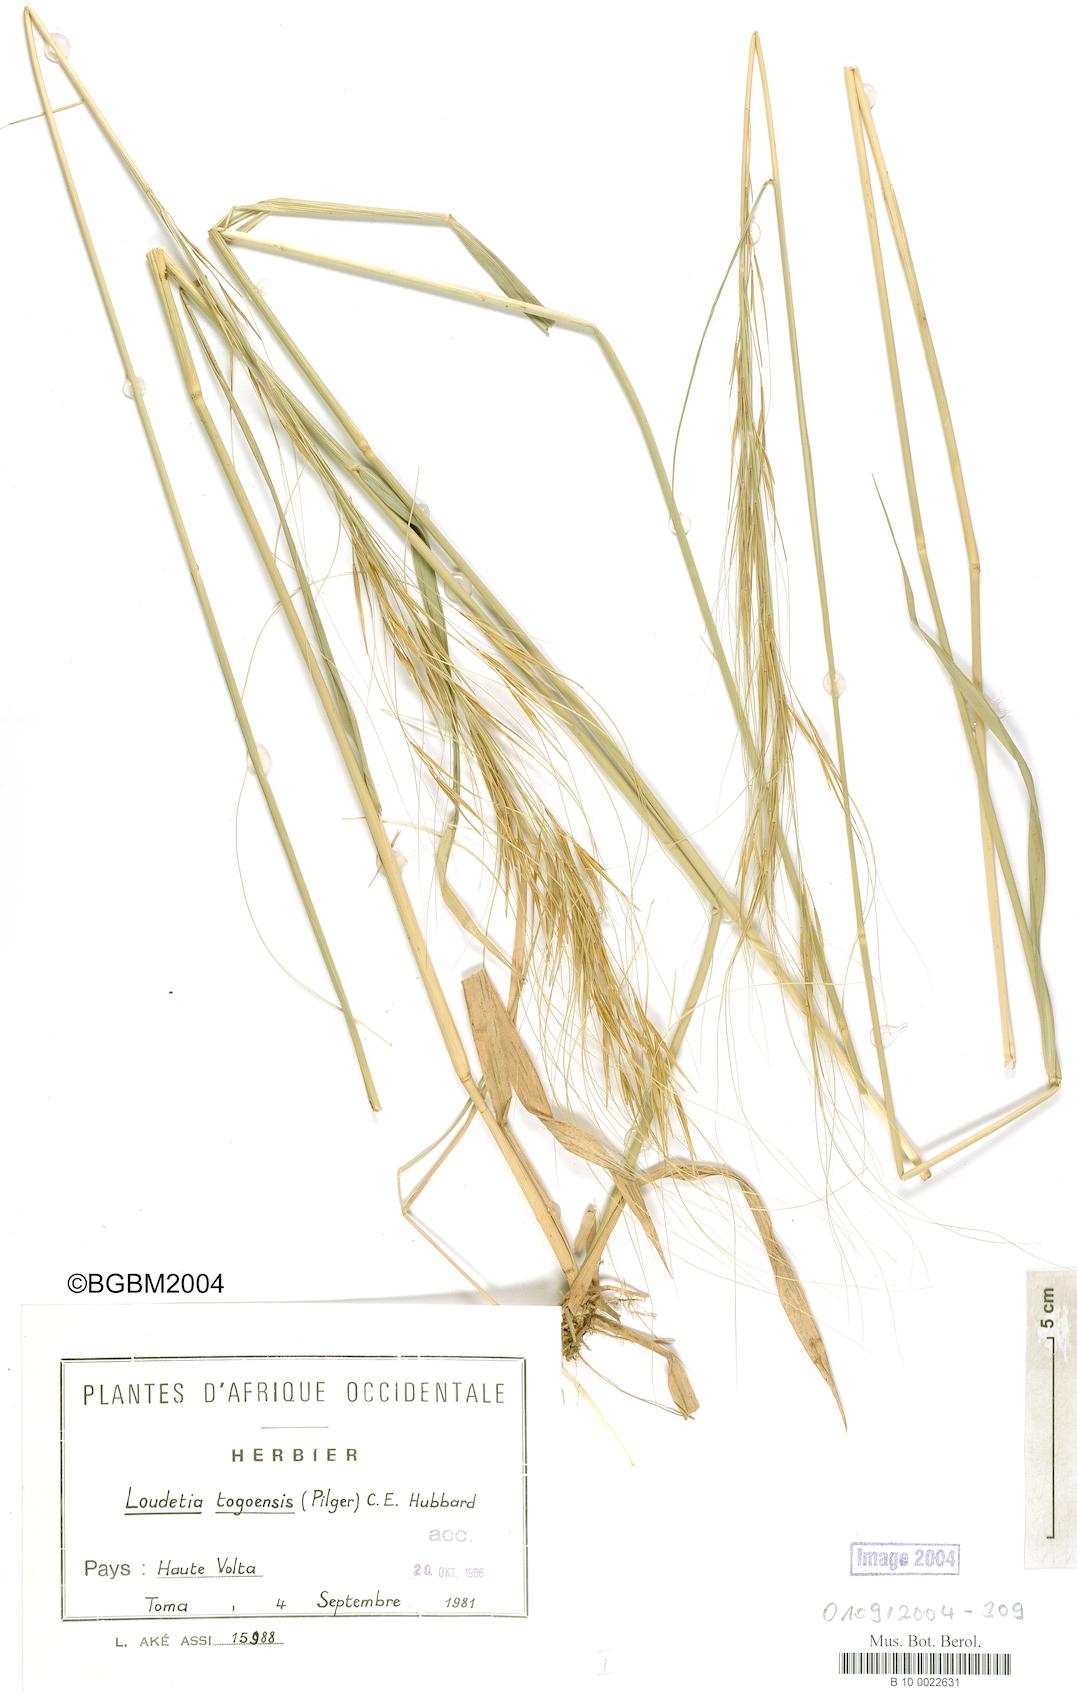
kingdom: Plantae
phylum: Tracheophyta
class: Liliopsida
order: Poales
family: Poaceae
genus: Loudetia
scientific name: Loudetia togoensis
